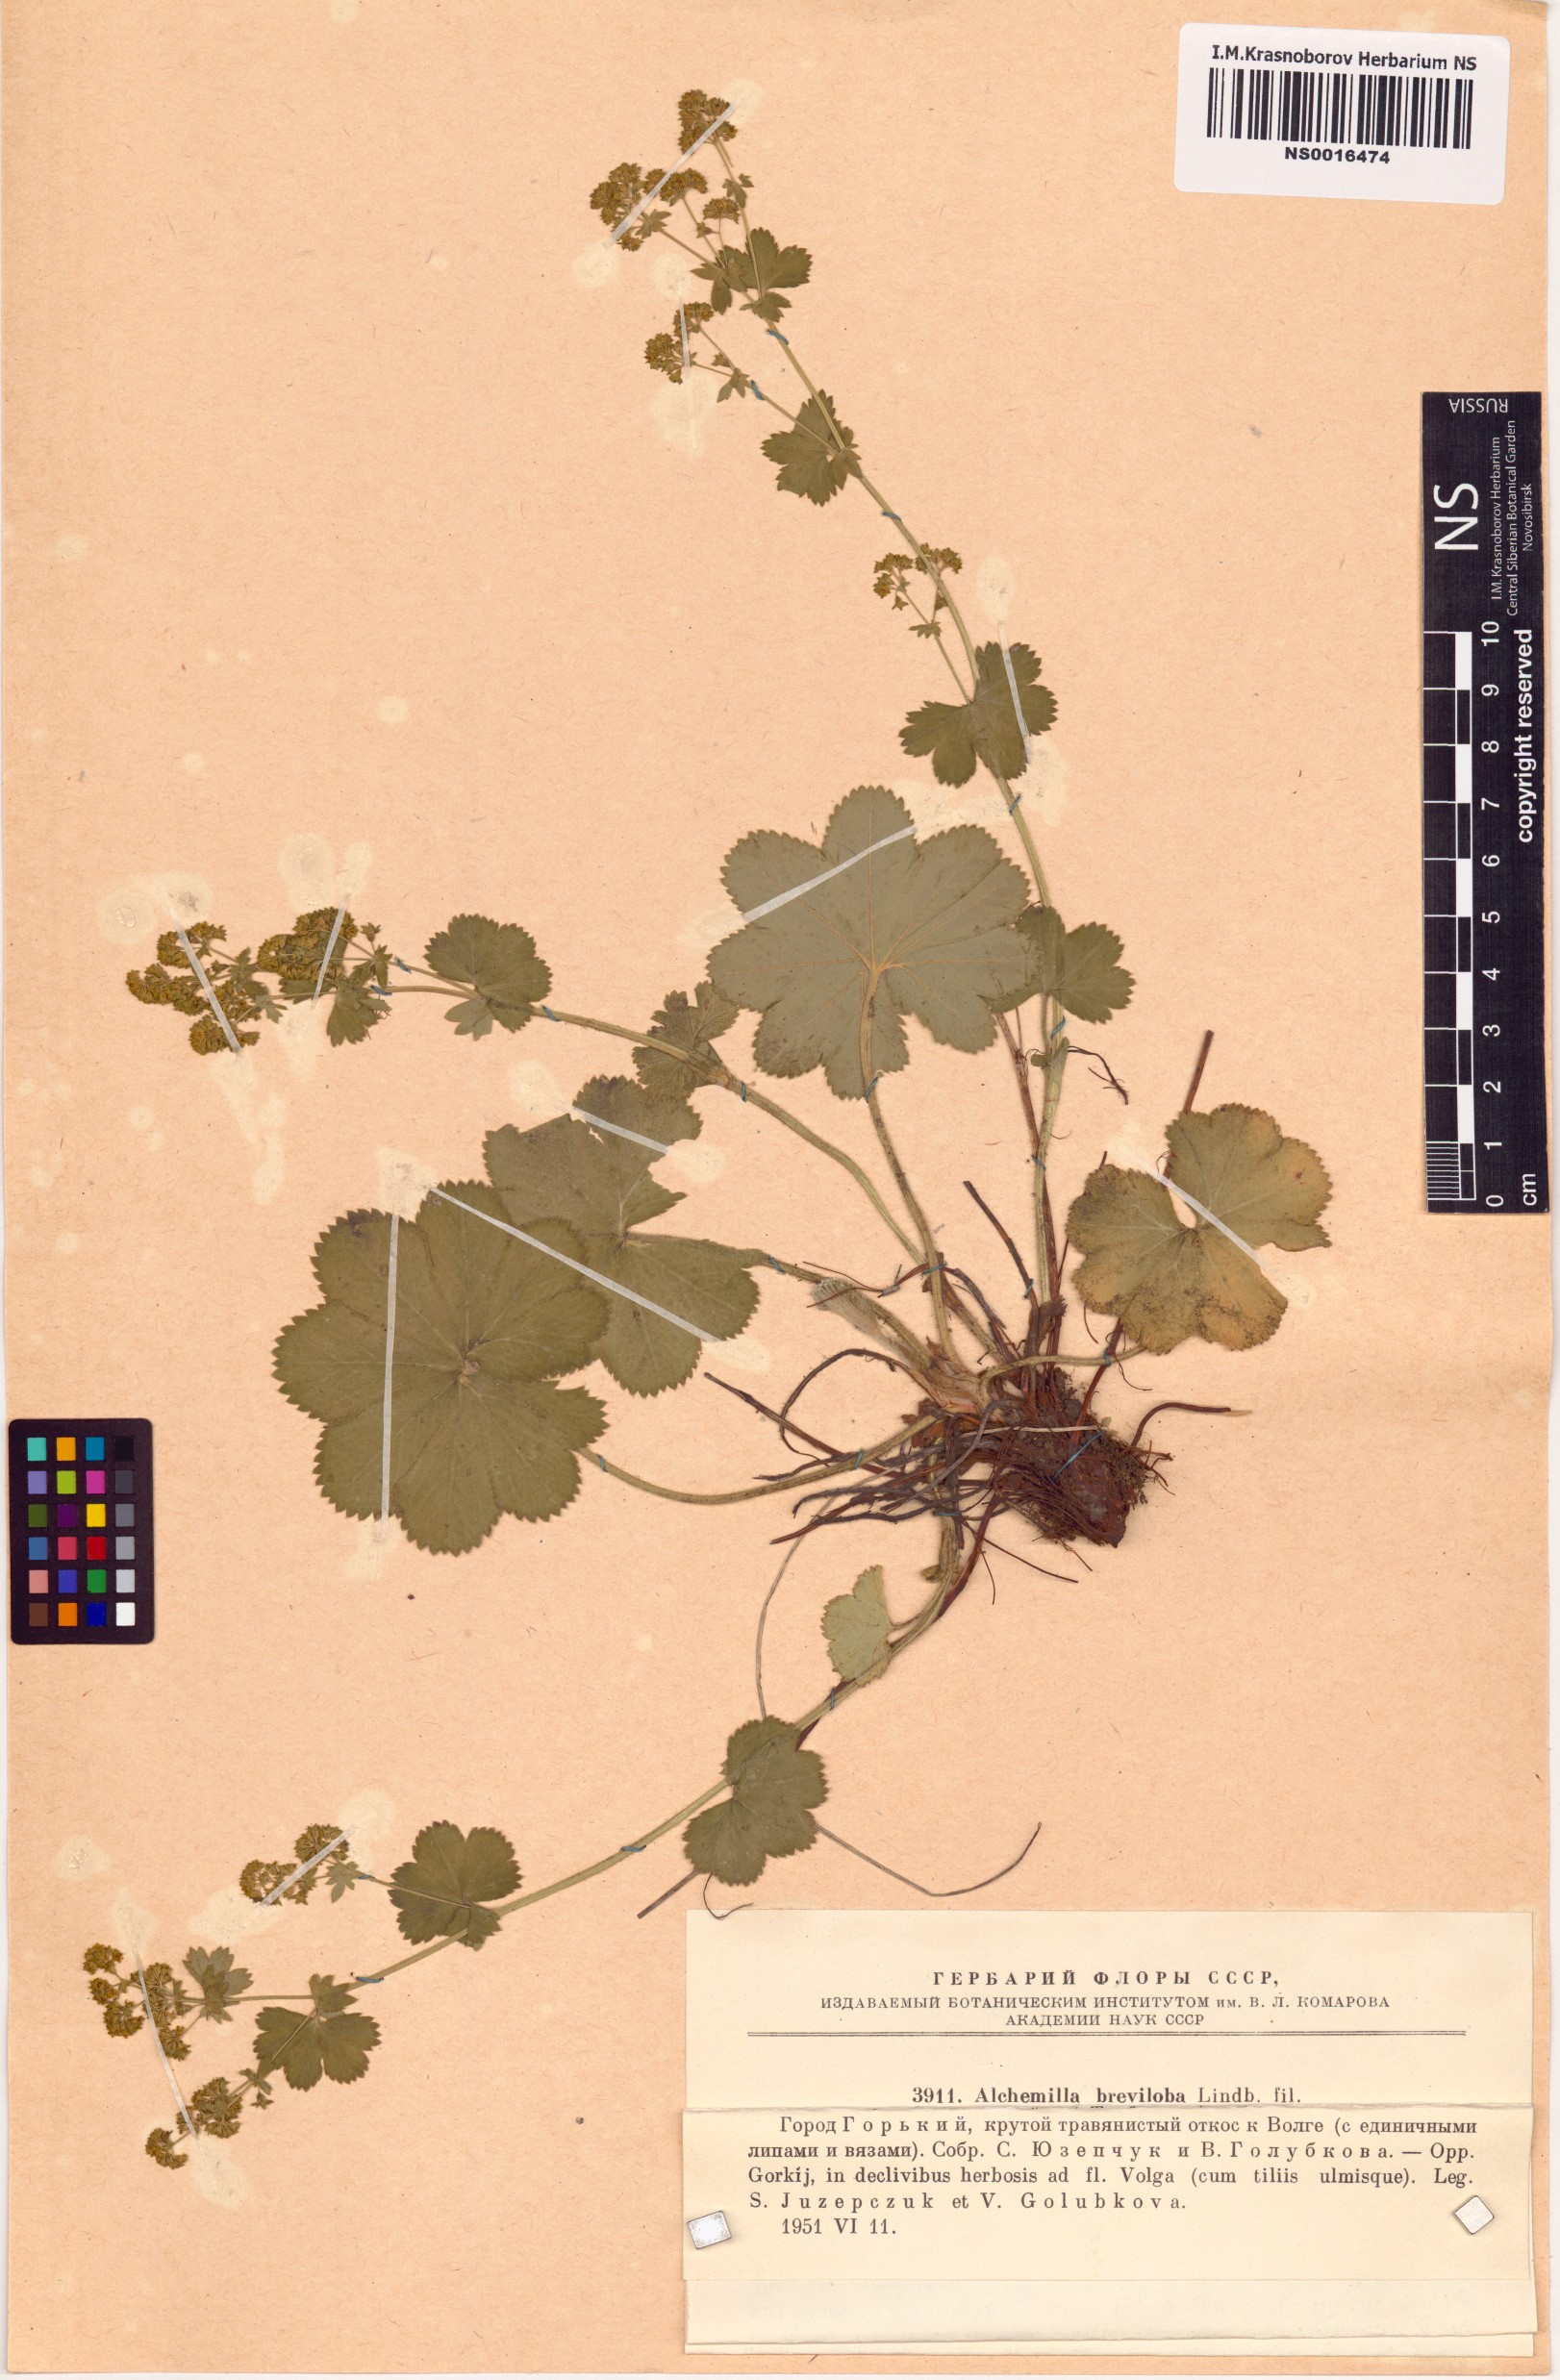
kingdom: Plantae
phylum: Tracheophyta
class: Magnoliopsida
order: Rosales
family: Rosaceae
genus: Alchemilla
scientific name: Alchemilla breviloba
